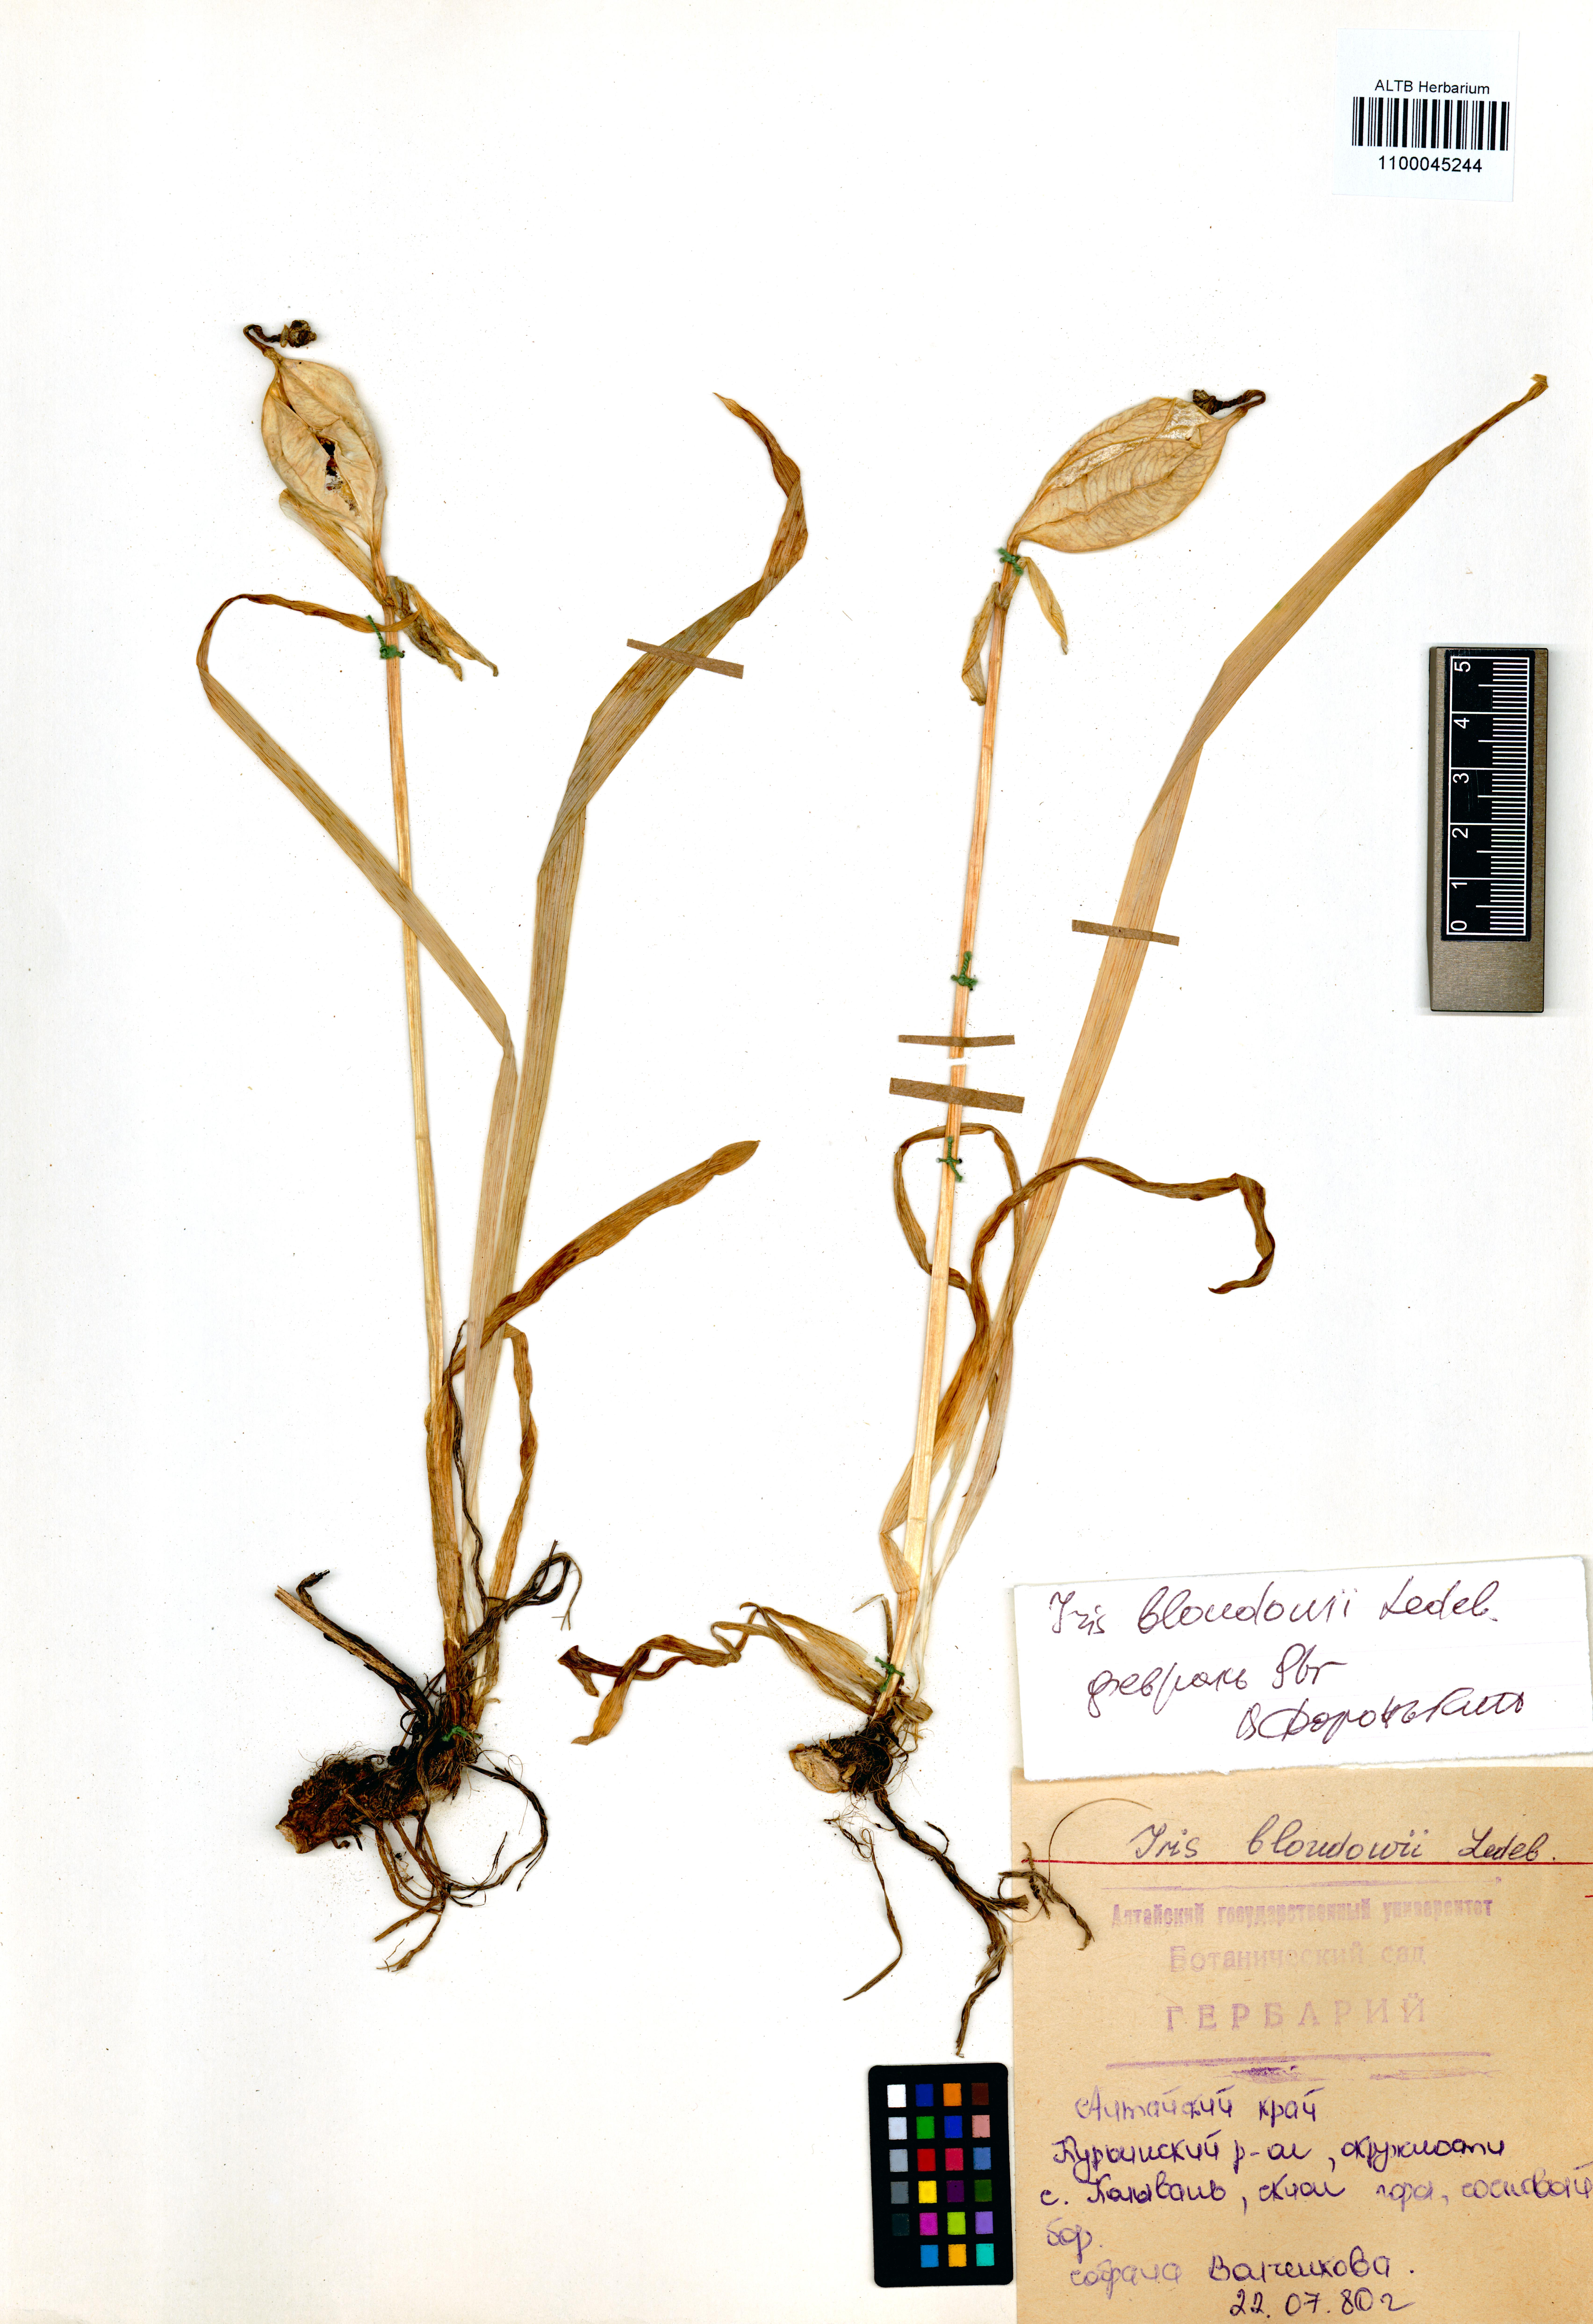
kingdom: Plantae
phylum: Tracheophyta
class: Liliopsida
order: Asparagales
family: Iridaceae
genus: Iris
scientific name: Iris bloudowii
